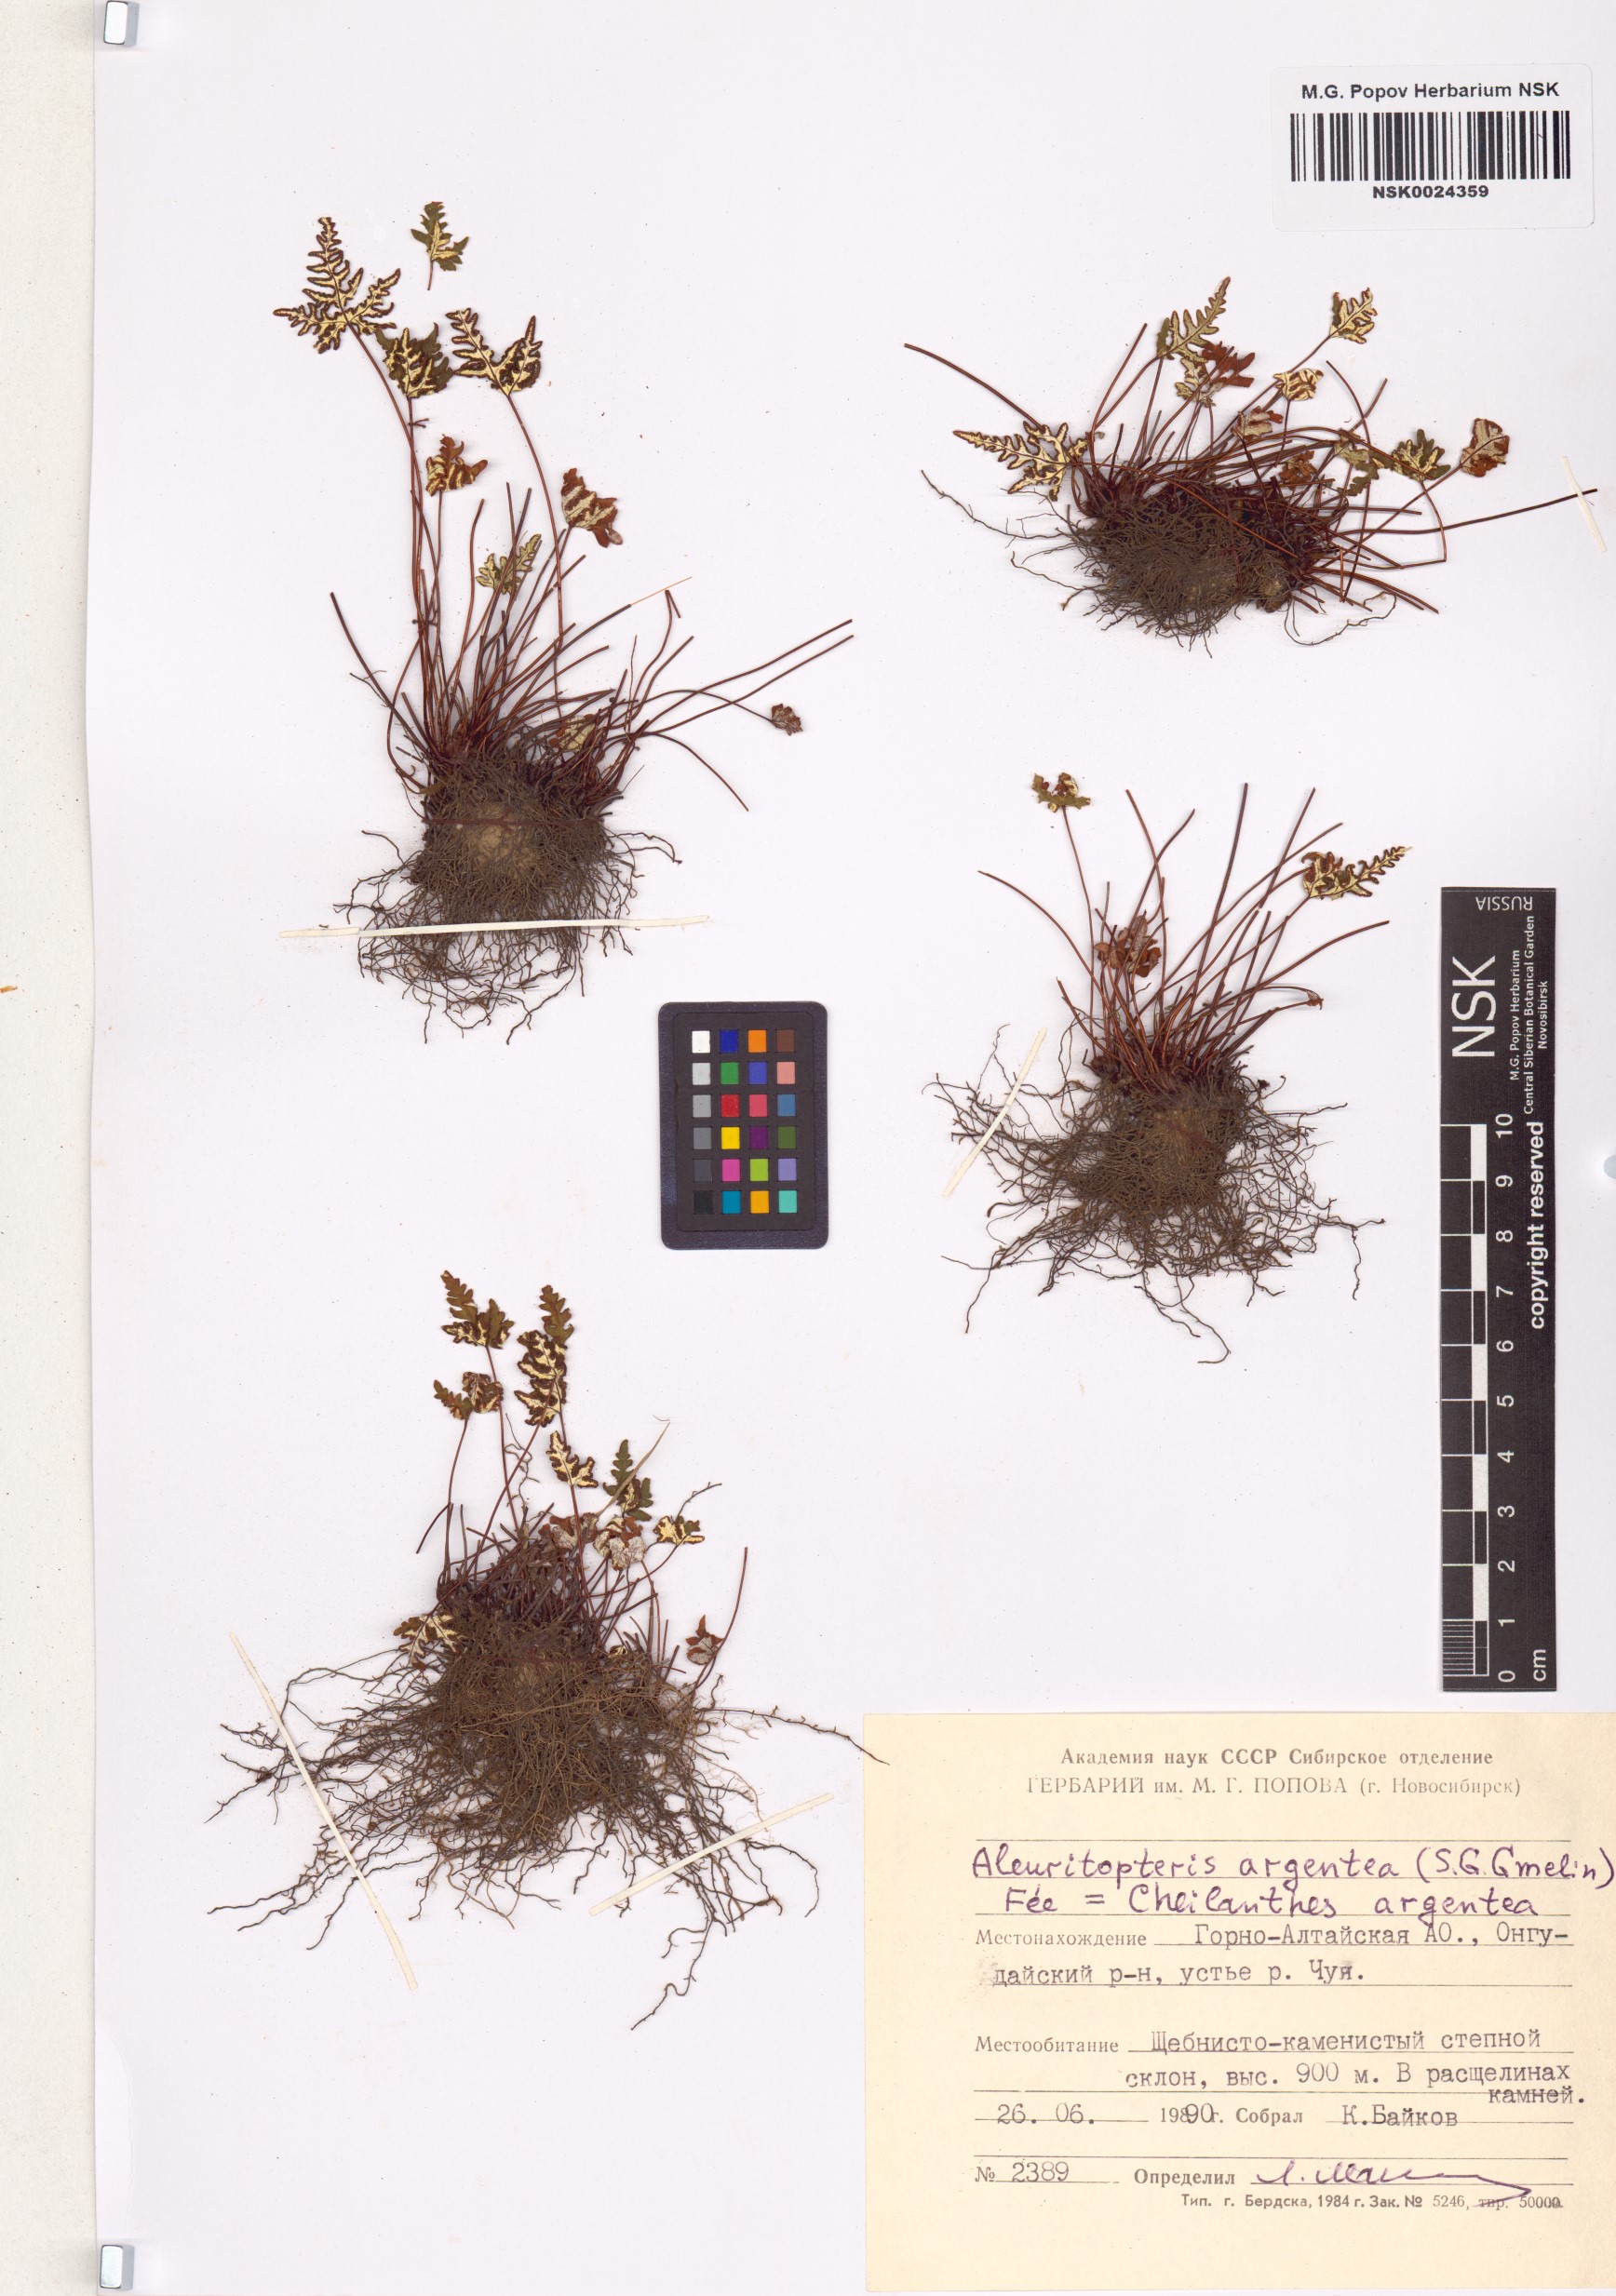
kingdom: Plantae
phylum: Tracheophyta
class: Polypodiopsida
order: Polypodiales
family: Pteridaceae
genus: Aleuritopteris
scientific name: Aleuritopteris argentea
